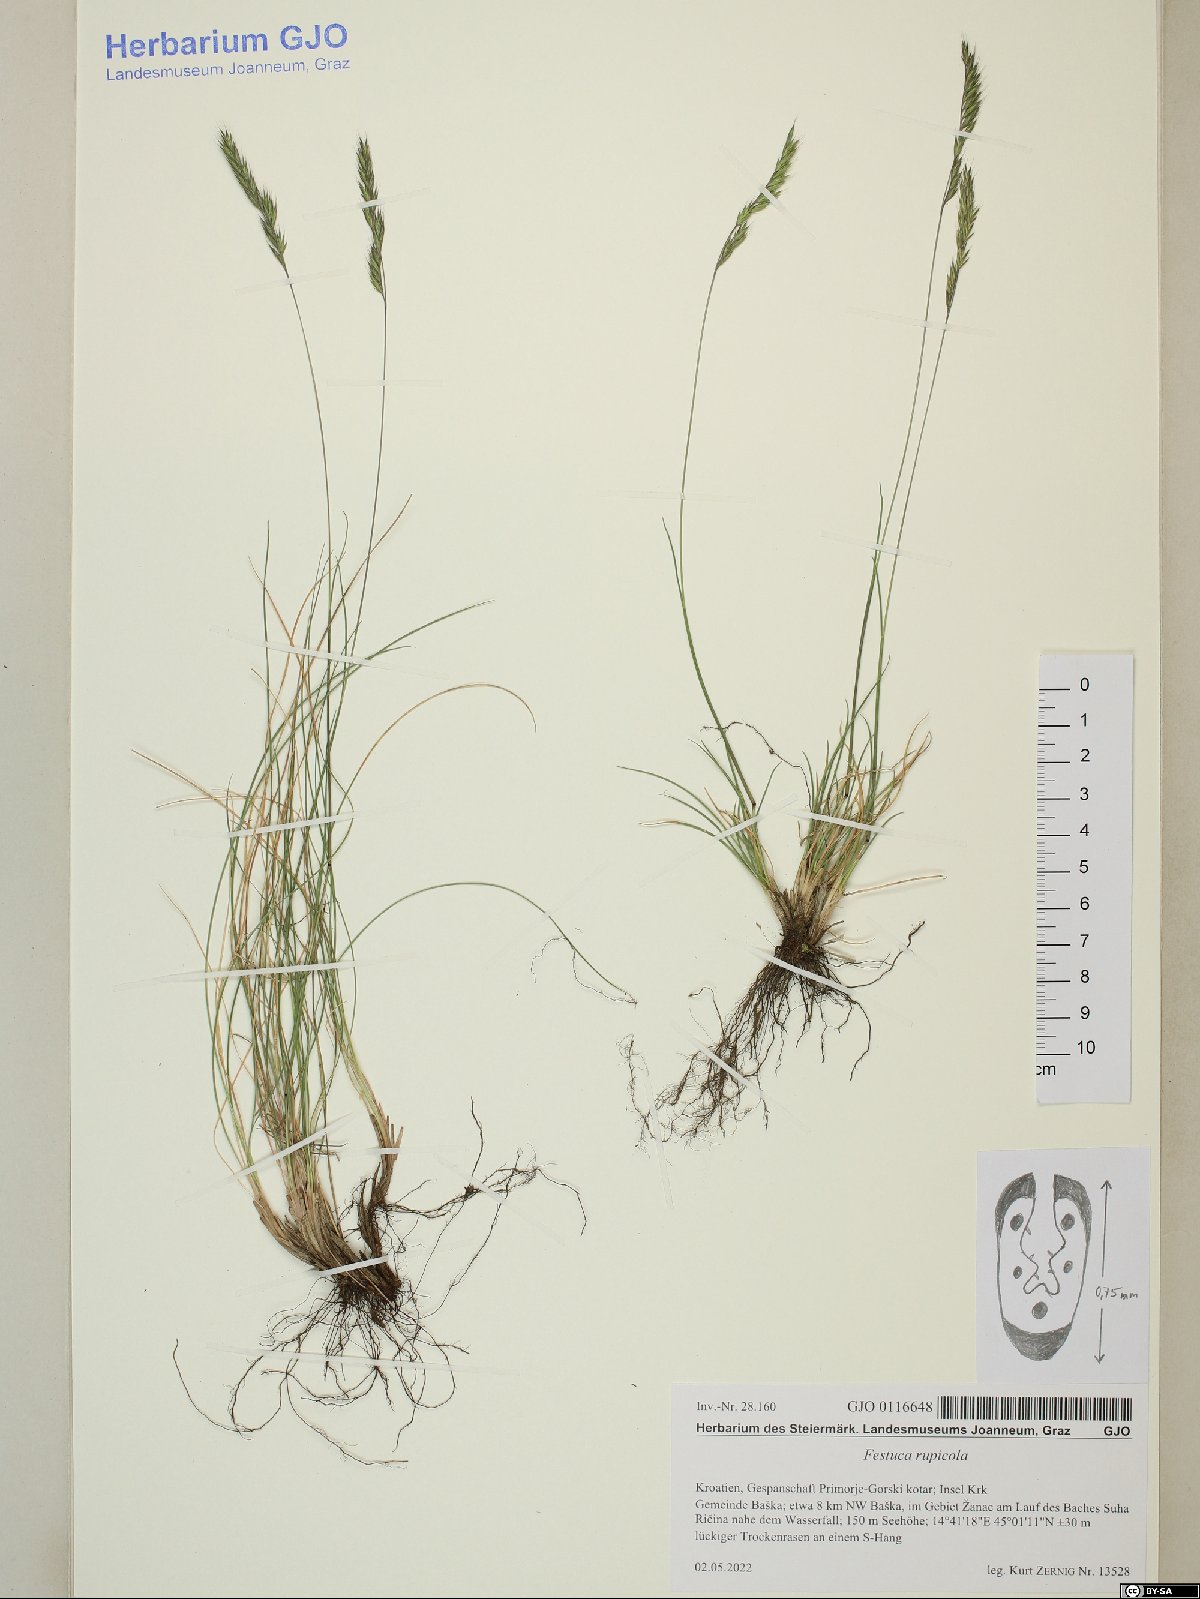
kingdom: Plantae
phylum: Tracheophyta
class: Liliopsida
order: Poales
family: Poaceae
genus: Festuca
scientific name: Festuca rupicola
